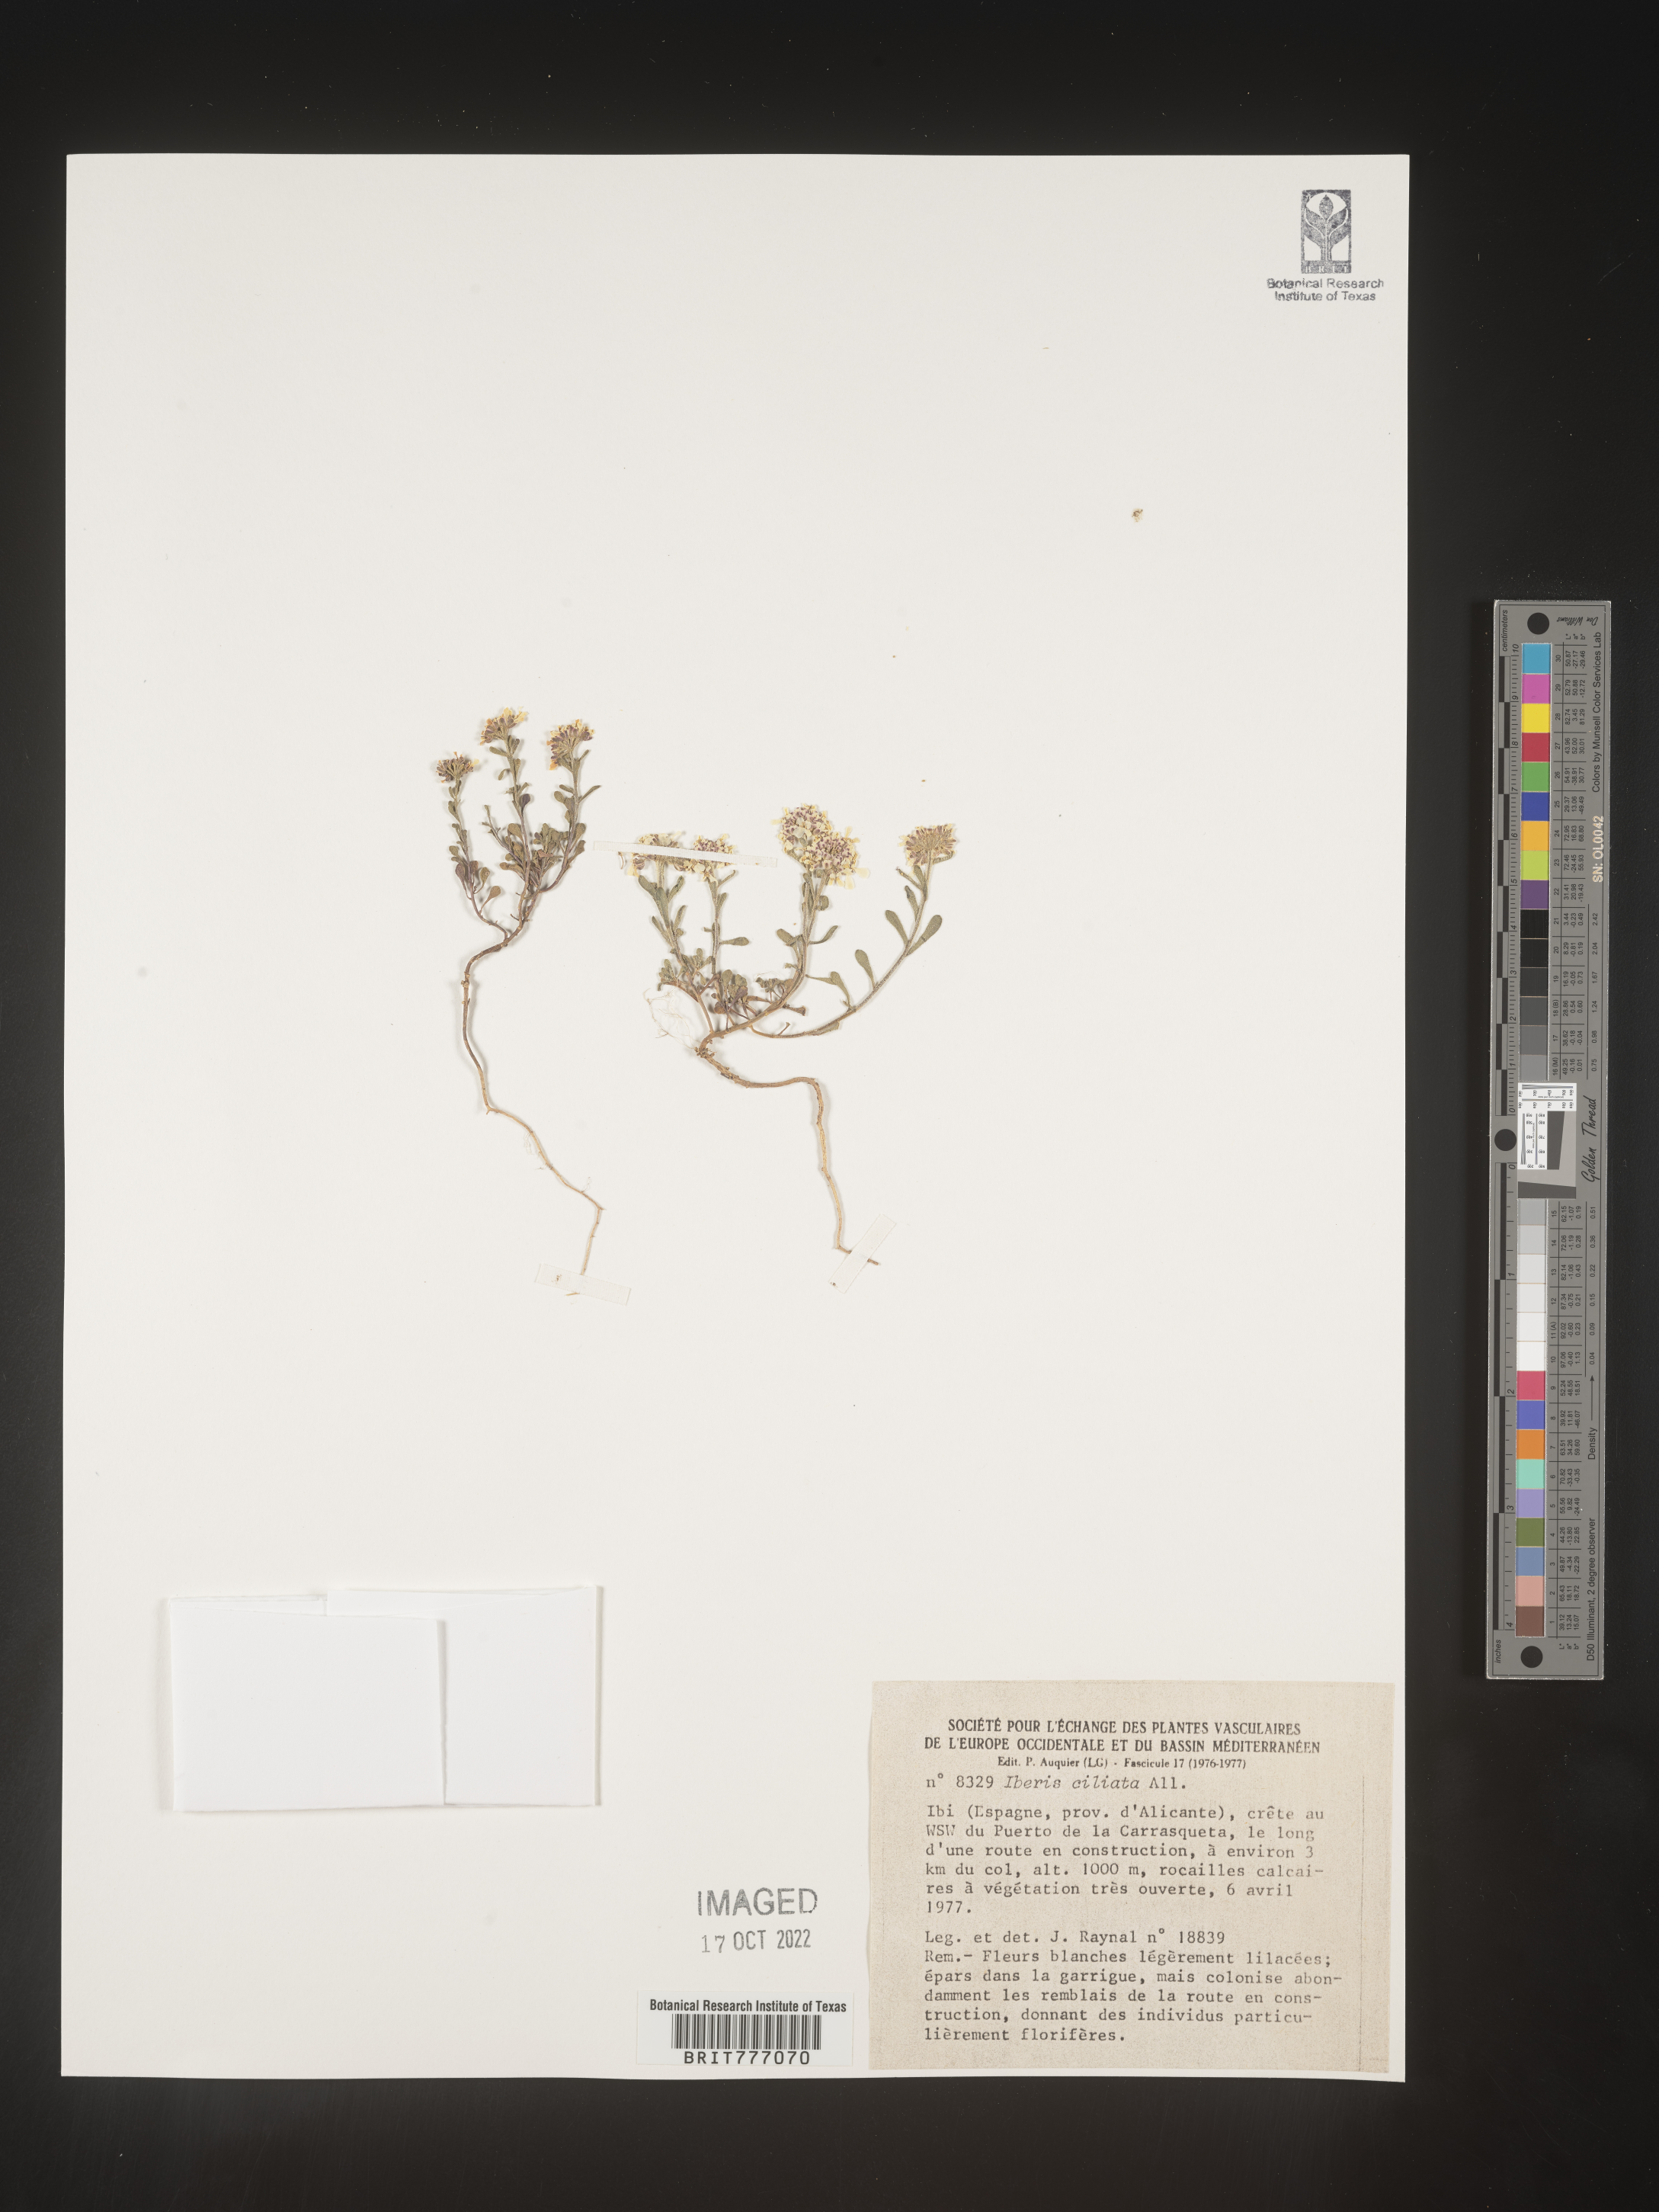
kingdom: Plantae
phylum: Tracheophyta
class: Magnoliopsida
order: Brassicales
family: Brassicaceae
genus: Iberis
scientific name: Iberis
